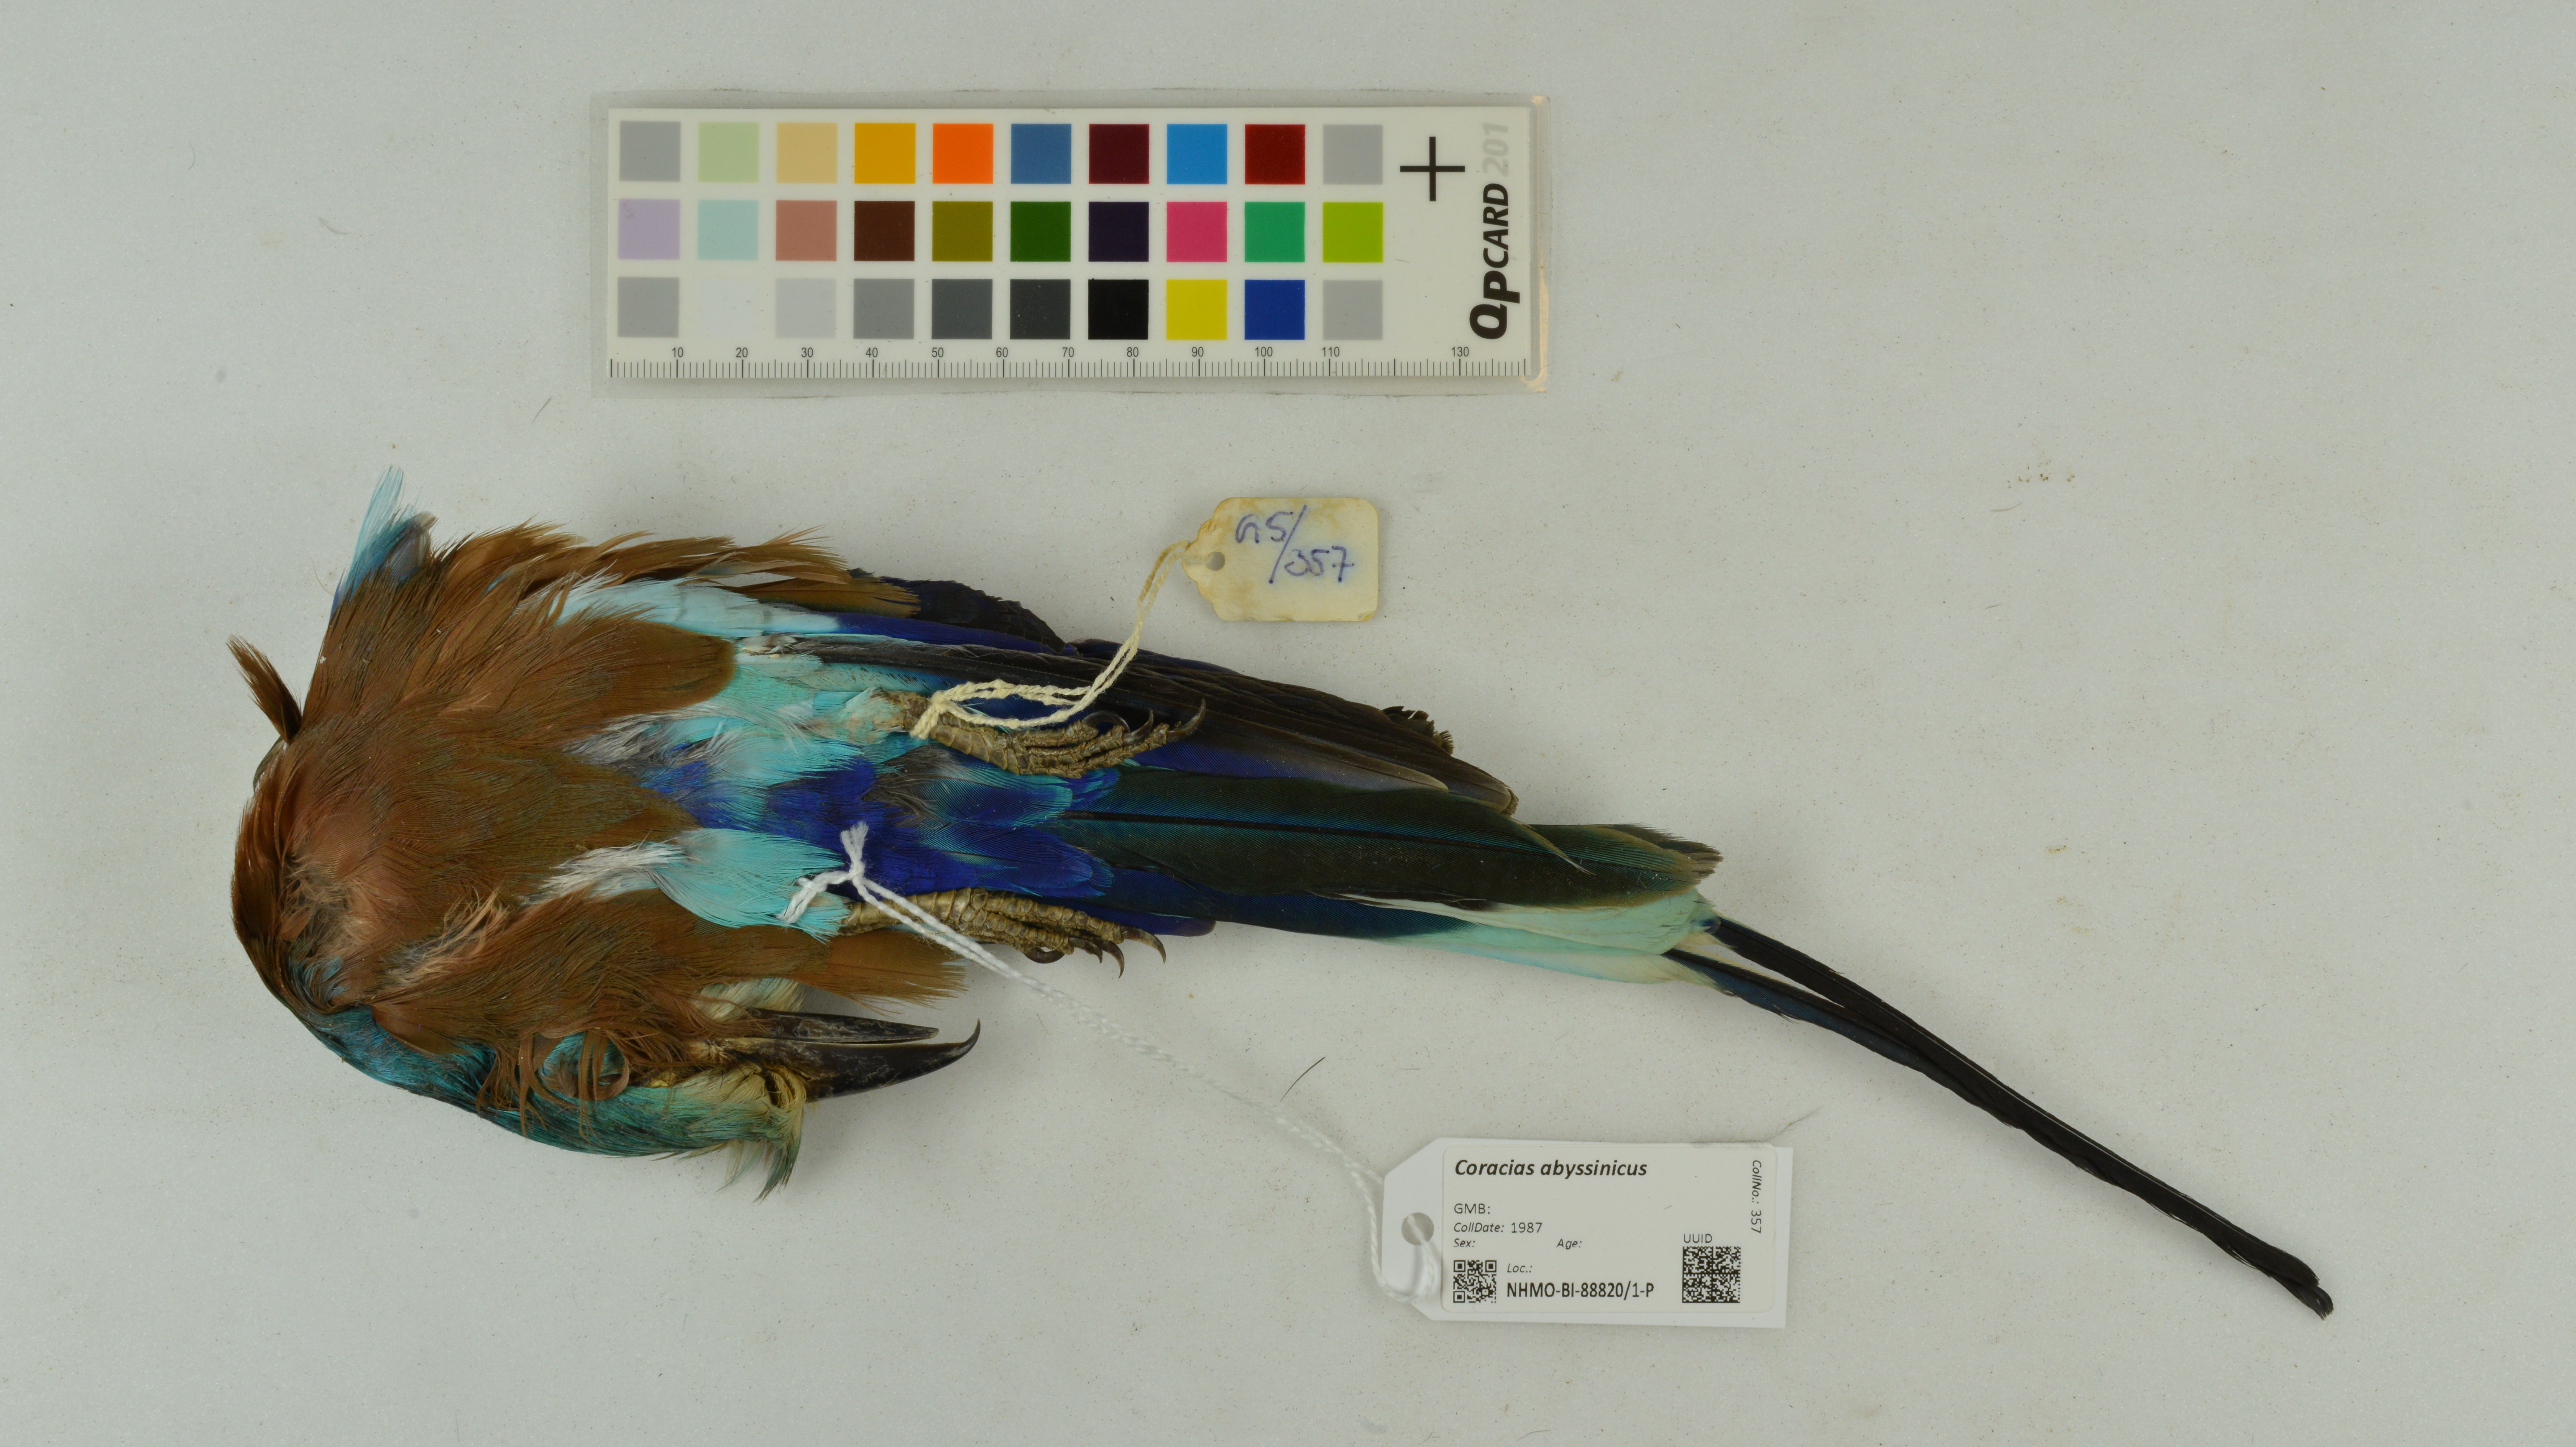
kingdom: Animalia
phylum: Chordata
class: Aves
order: Coraciiformes
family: Coraciidae
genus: Coracias
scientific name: Coracias abyssinicus
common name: Abyssinian roller
